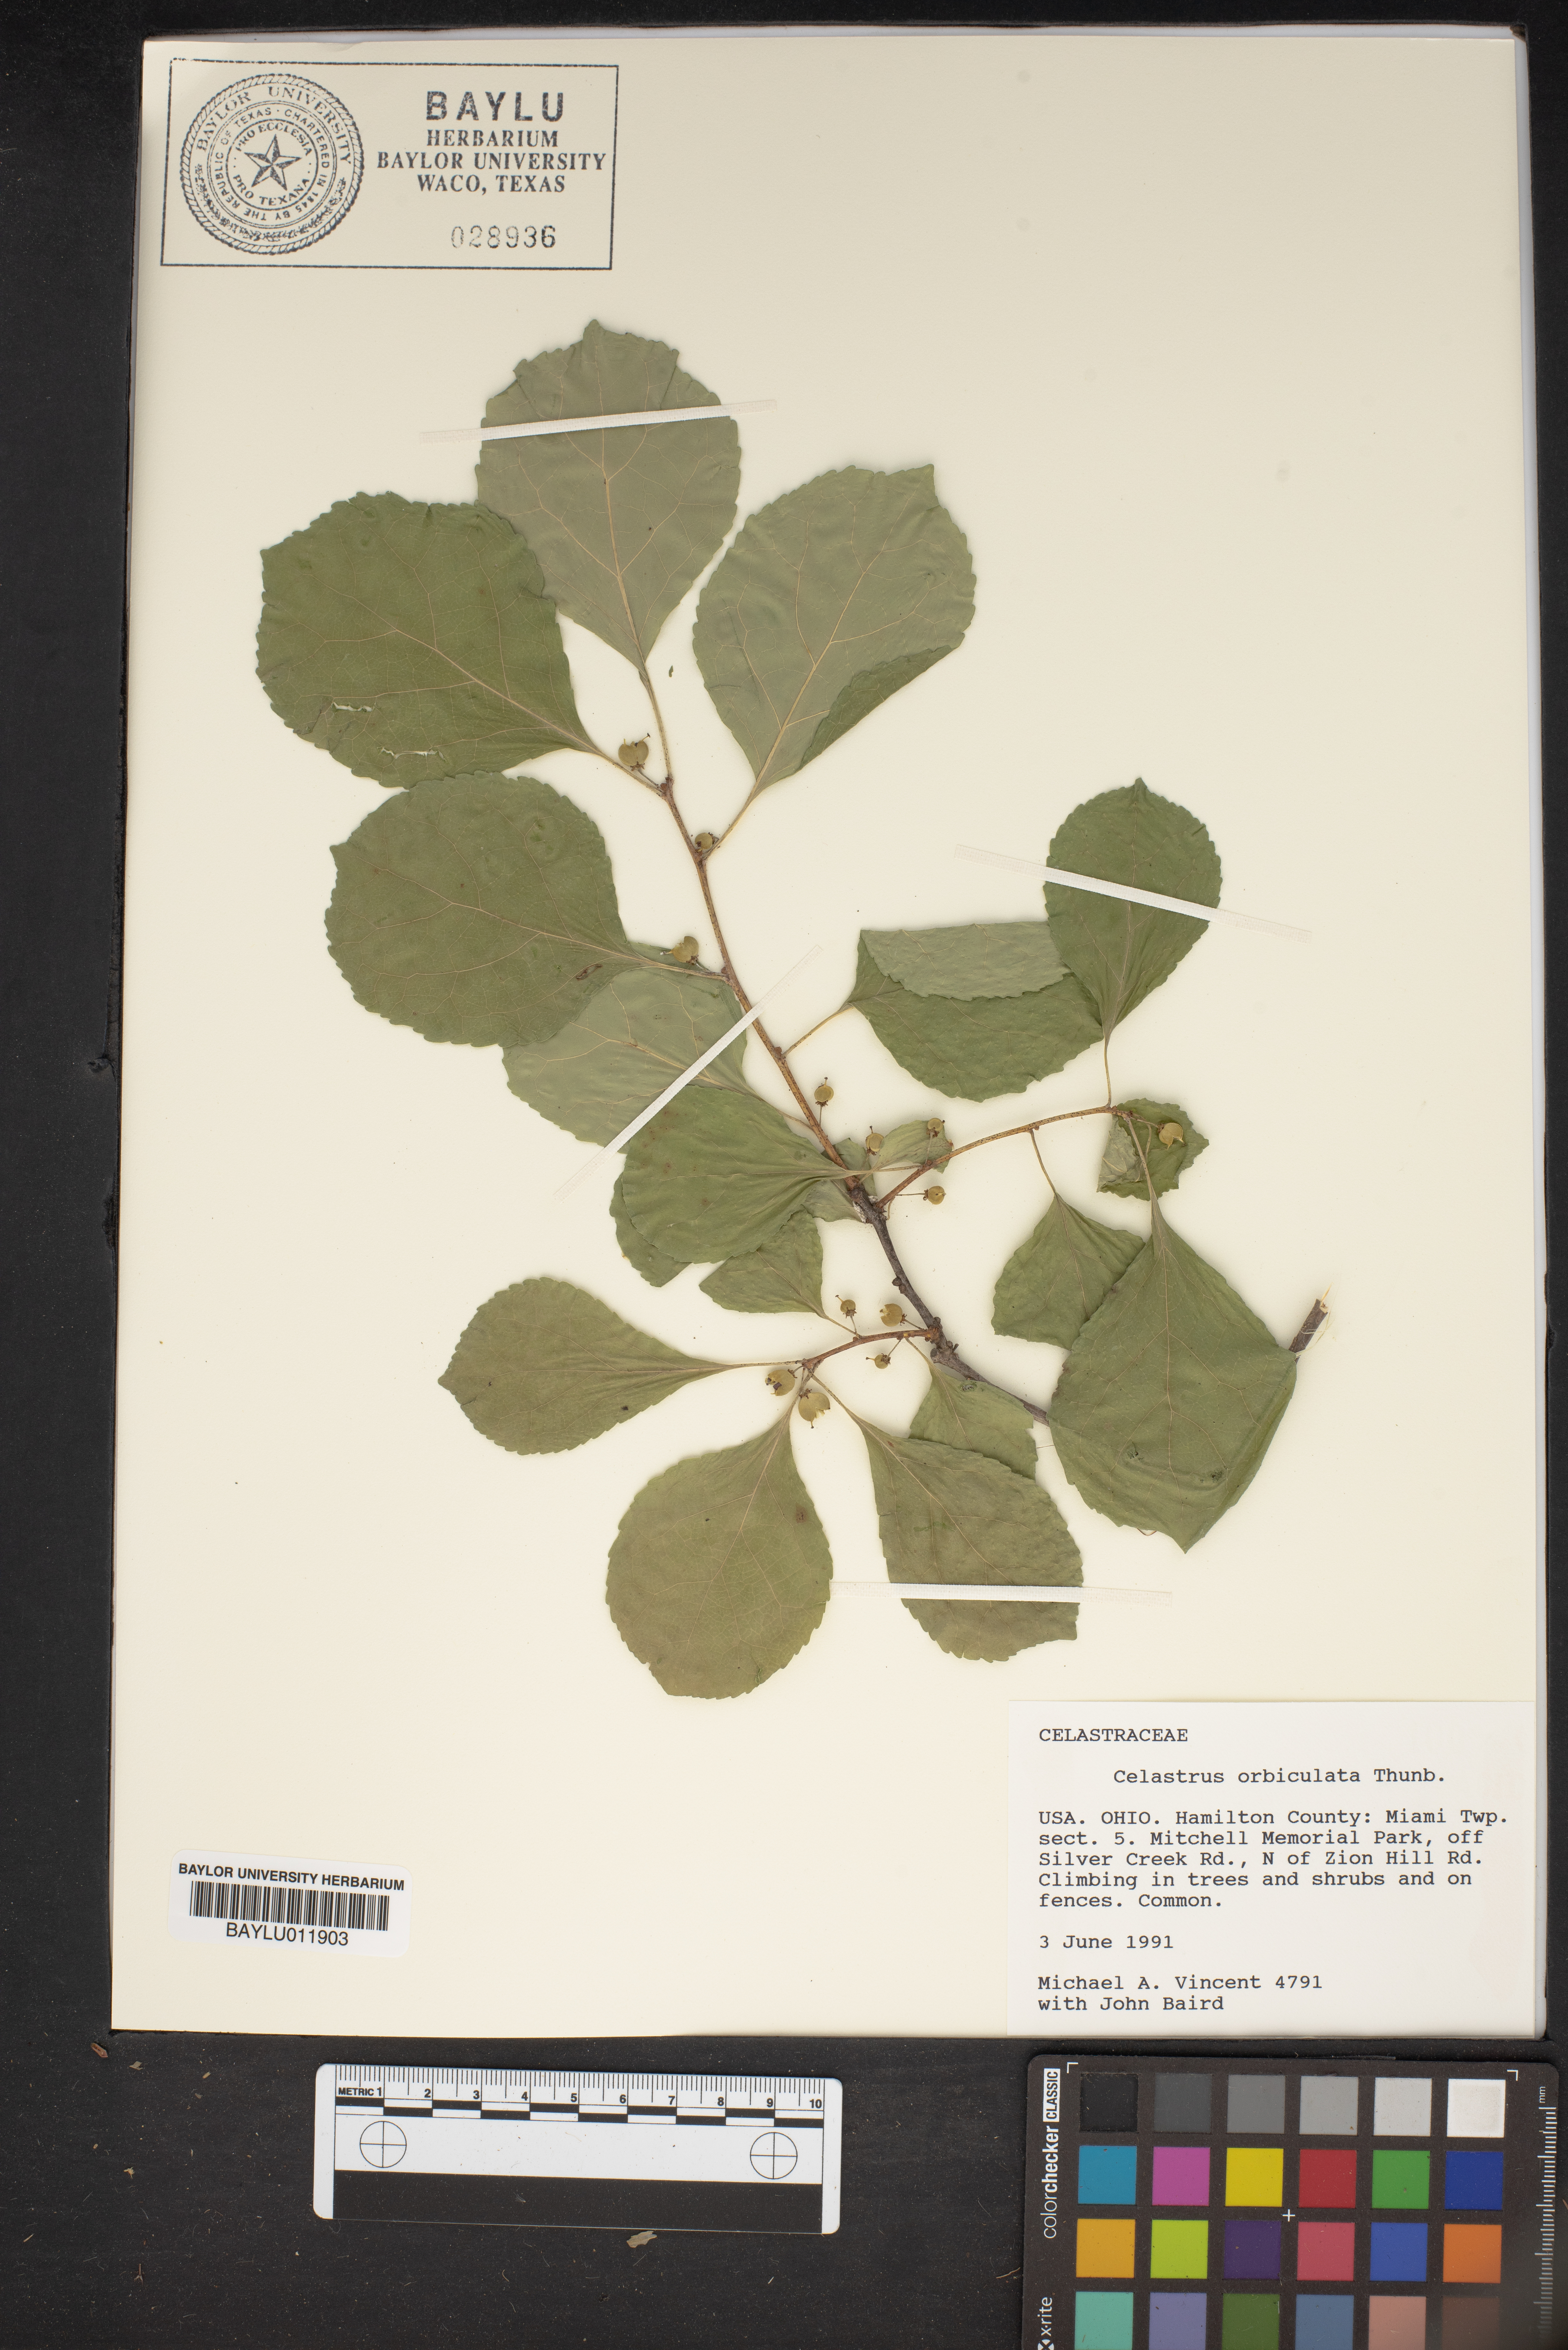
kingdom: Plantae
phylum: Tracheophyta
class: Magnoliopsida
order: Celastrales
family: Celastraceae
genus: Celastrus
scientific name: Celastrus orbiculatus
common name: Oriental bittersweet
